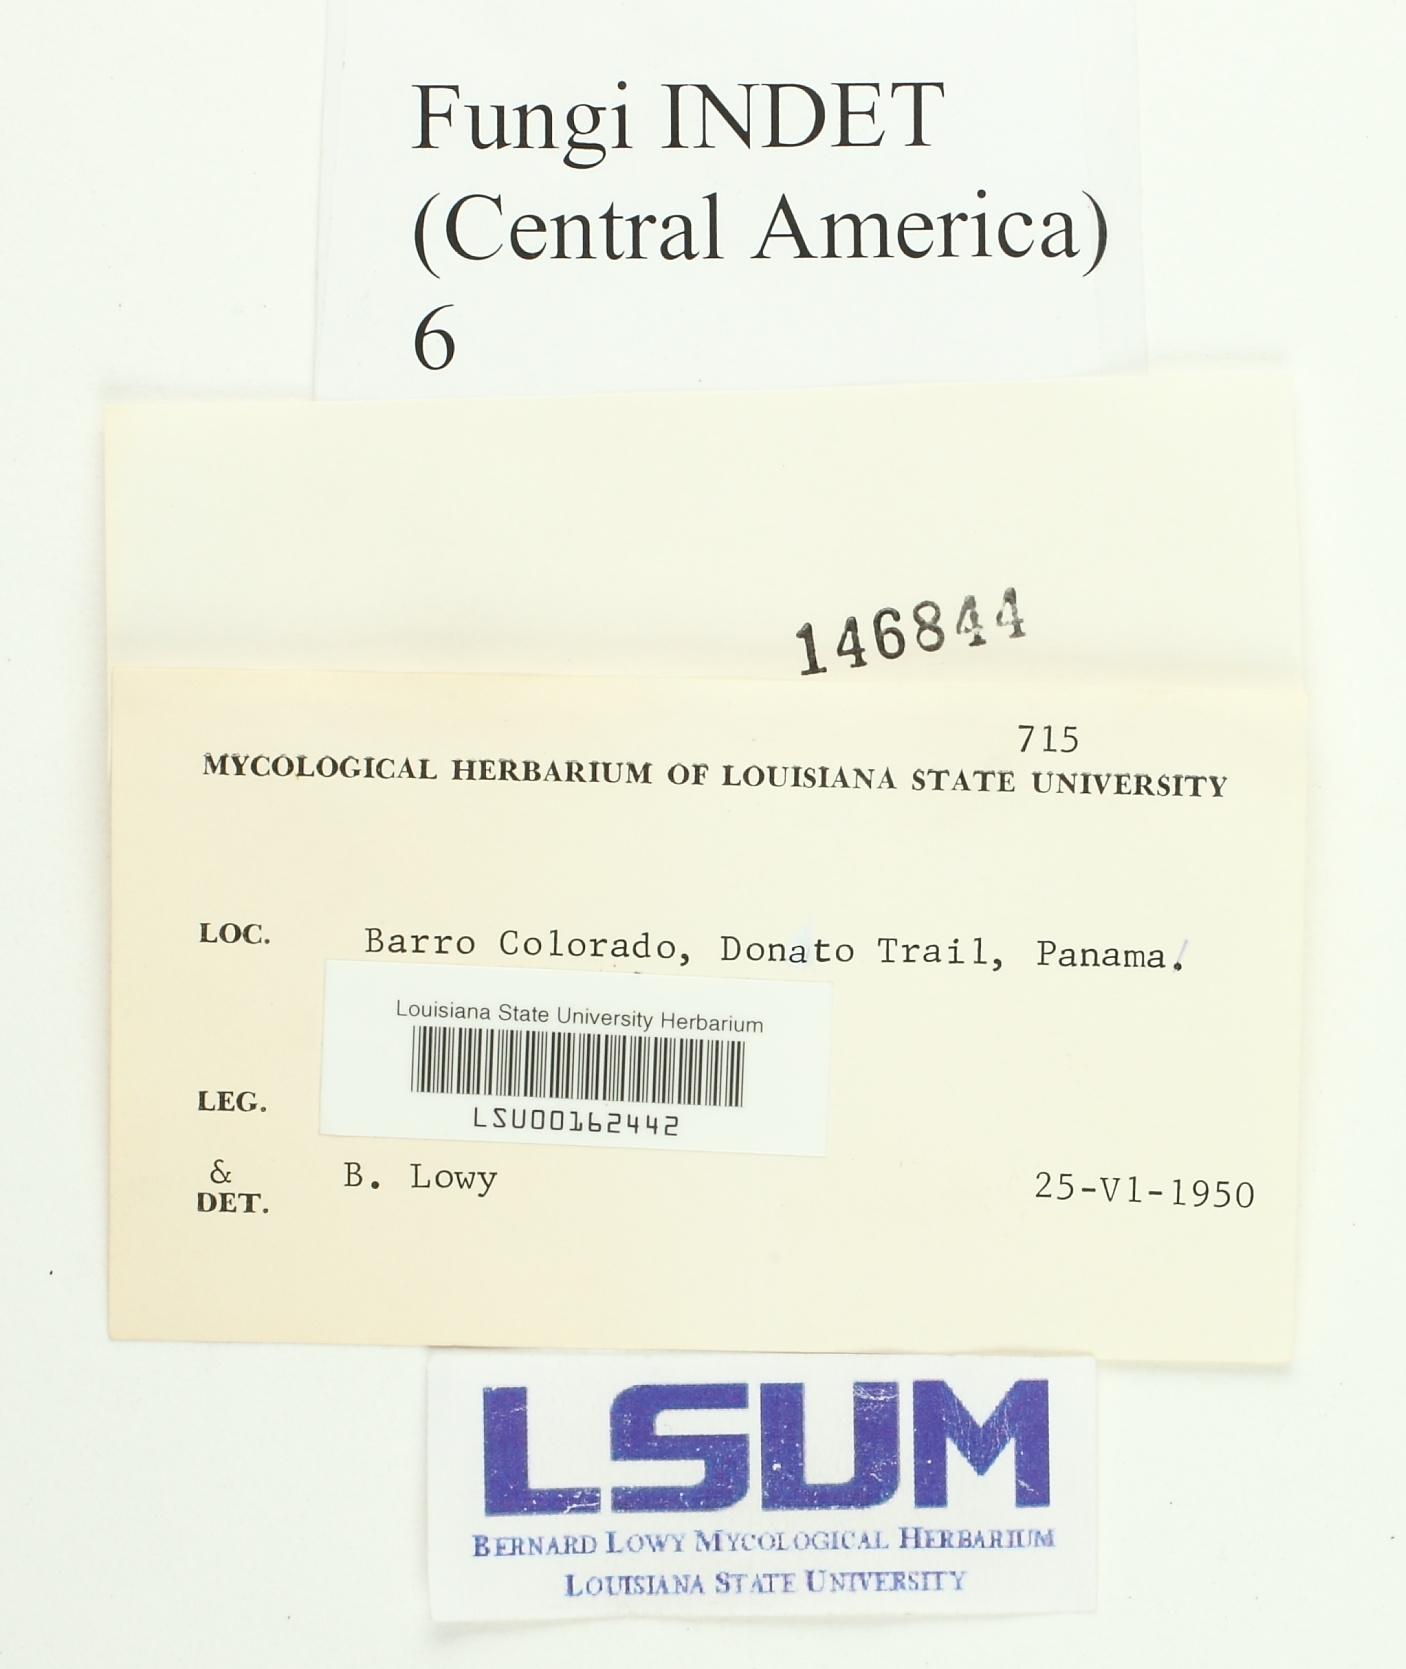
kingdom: Fungi
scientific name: Fungi
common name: Fungi
